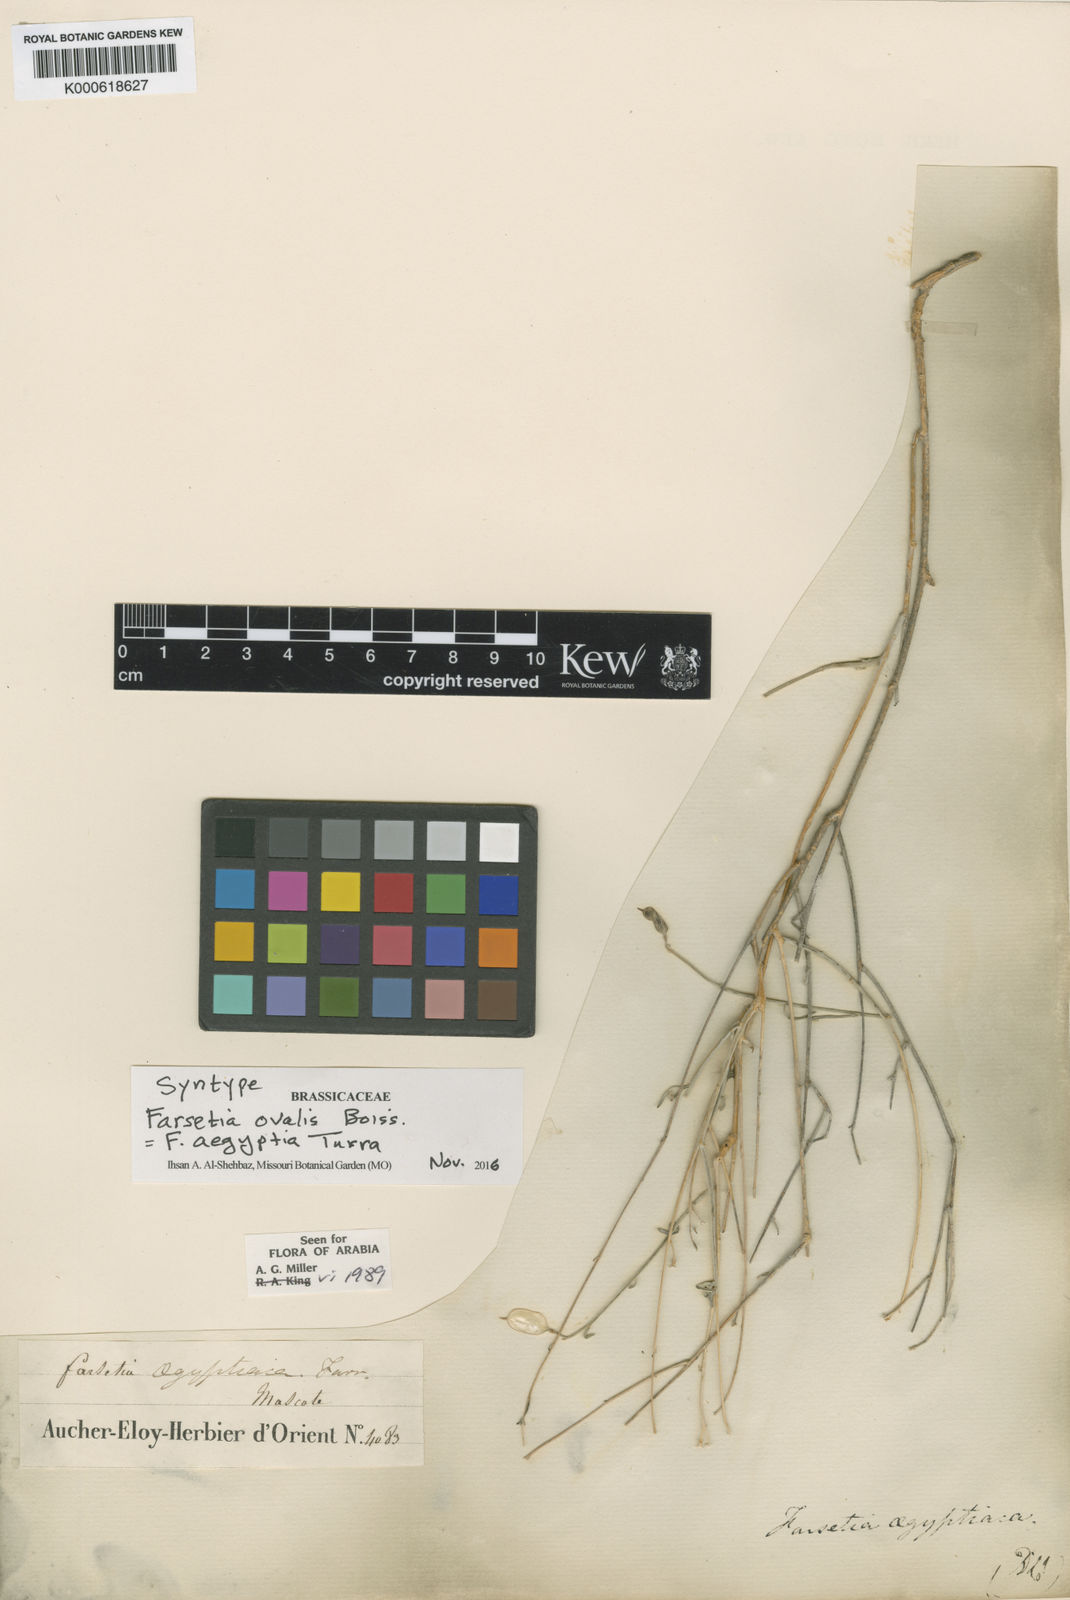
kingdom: Plantae
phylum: Tracheophyta
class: Magnoliopsida
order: Brassicales
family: Brassicaceae
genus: Farsetia
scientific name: Farsetia aegyptia
